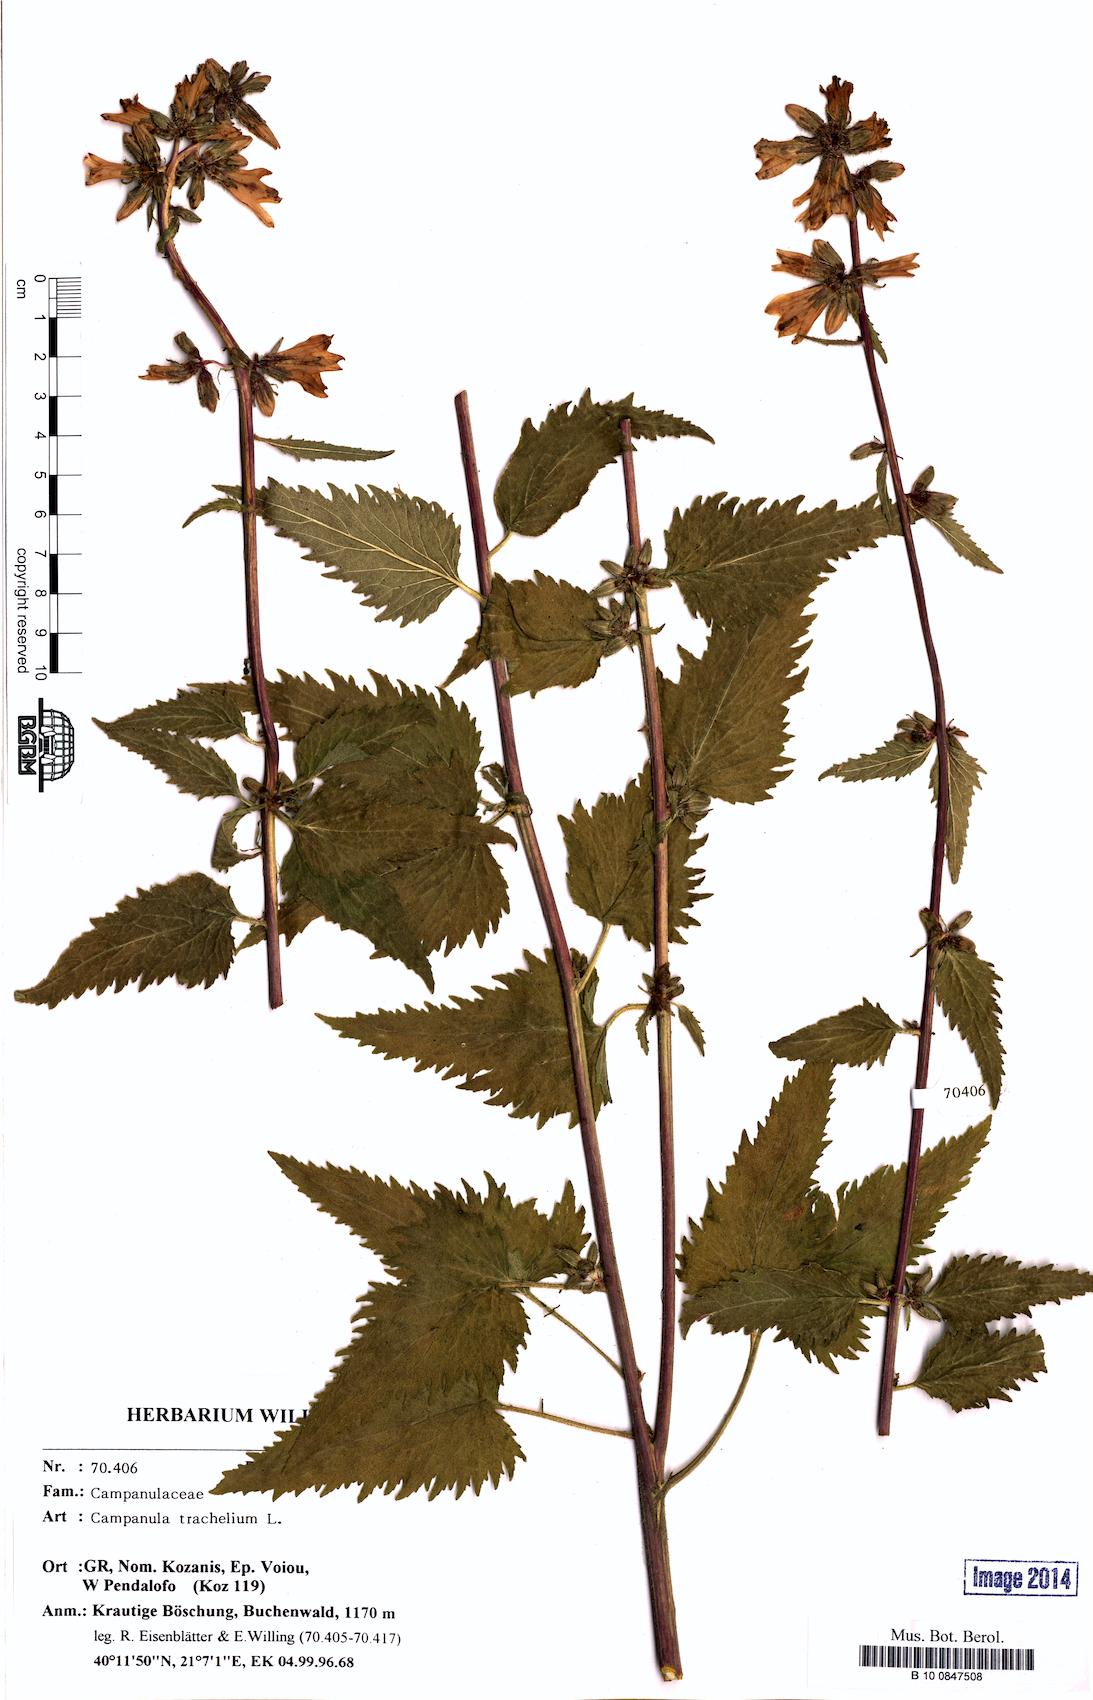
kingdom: Plantae
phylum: Tracheophyta
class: Magnoliopsida
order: Asterales
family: Campanulaceae
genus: Campanula
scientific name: Campanula trachelium
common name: Nettle-leaved bellflower
